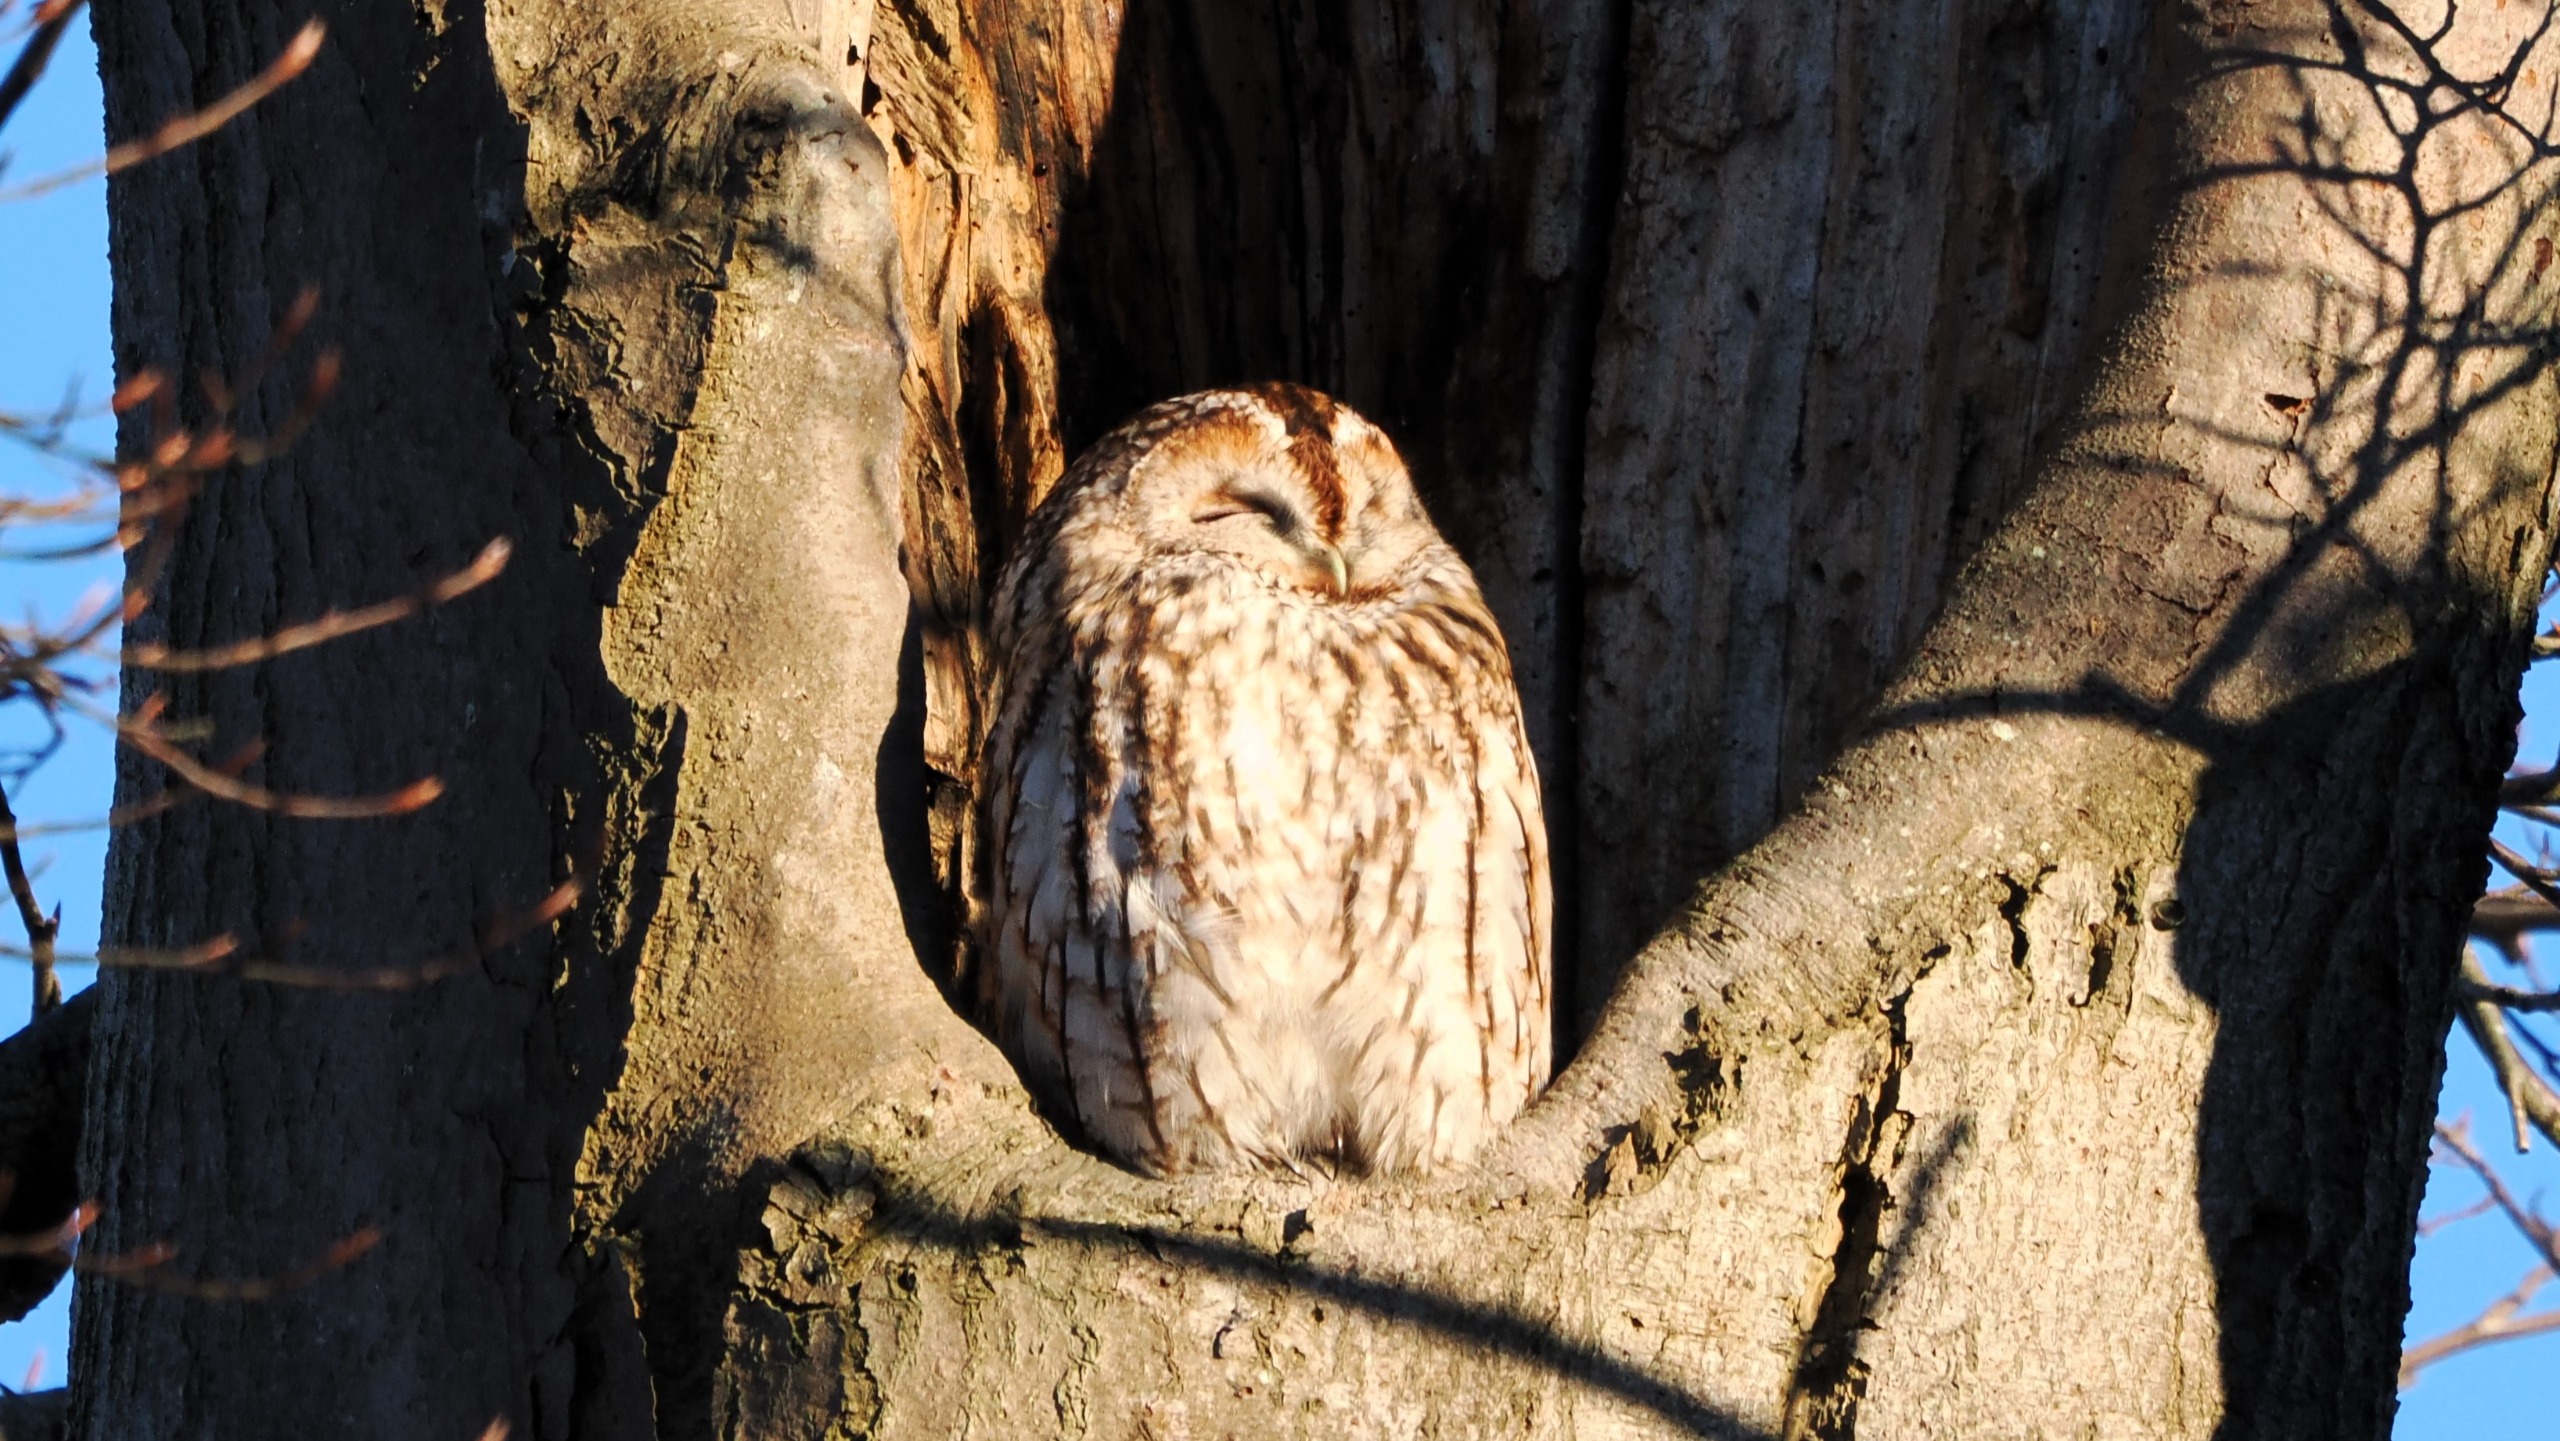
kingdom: Animalia
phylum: Chordata
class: Aves
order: Strigiformes
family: Strigidae
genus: Strix
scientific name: Strix aluco
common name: Natugle
